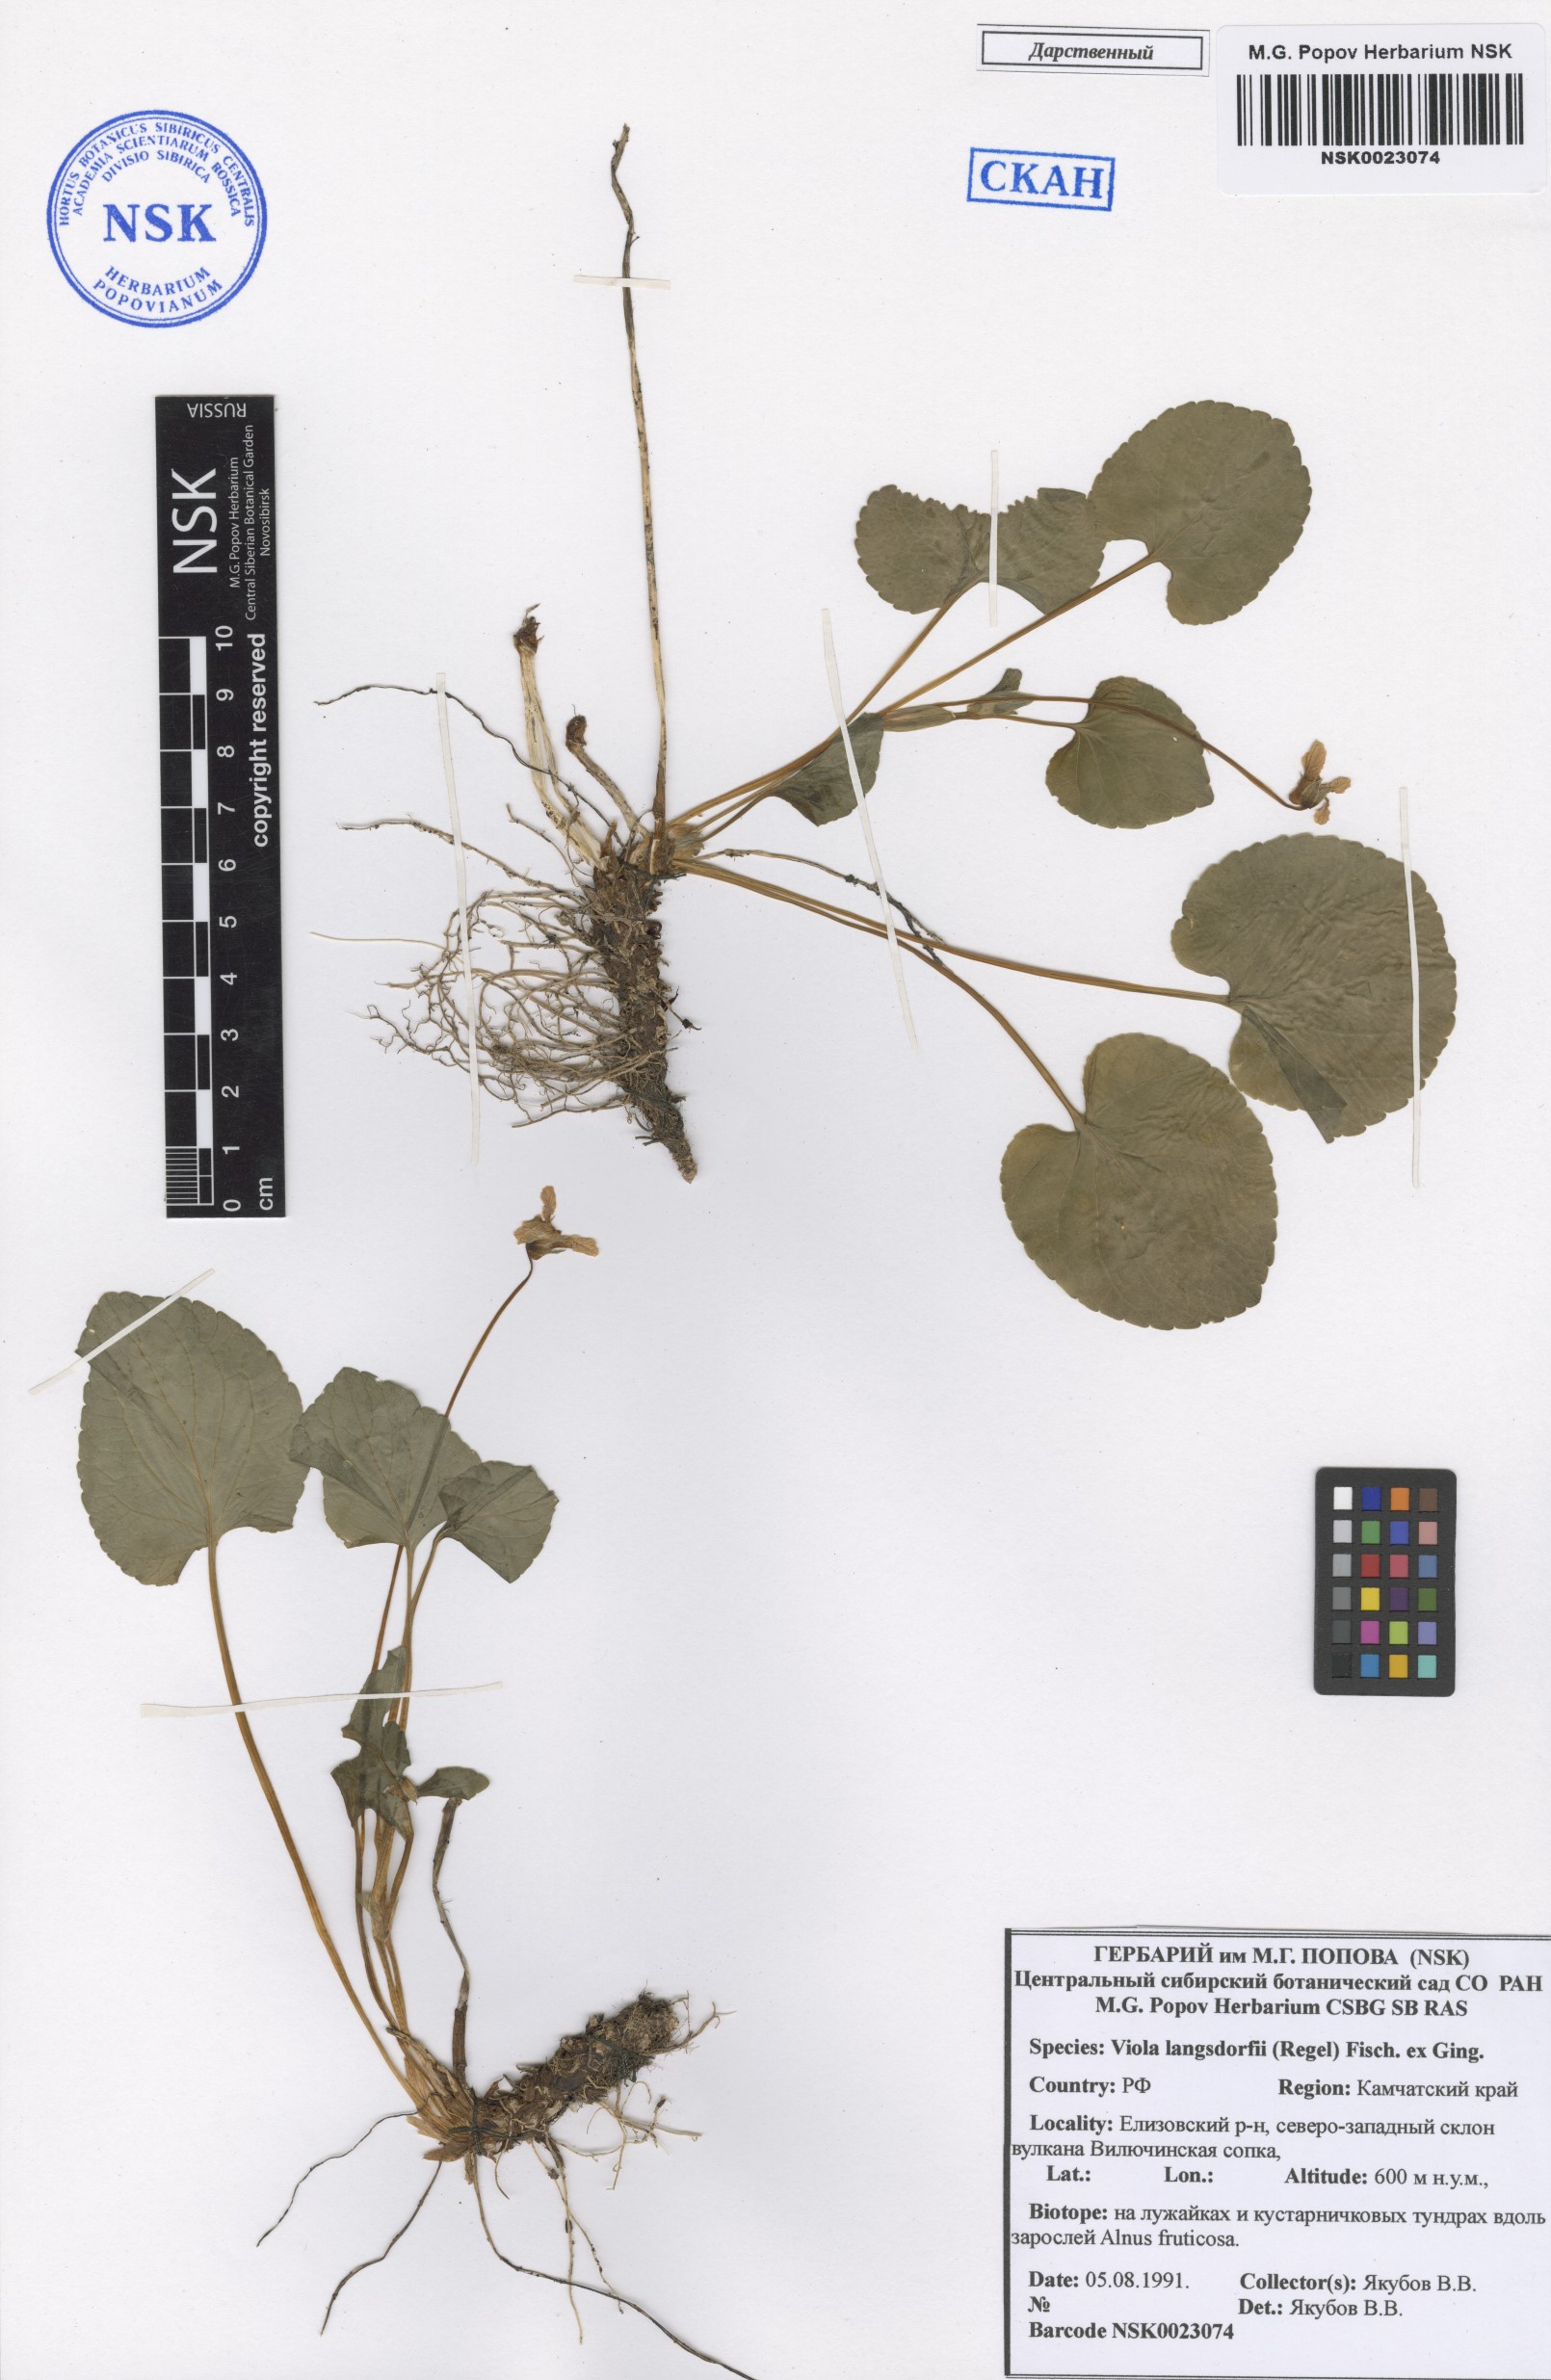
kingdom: Plantae
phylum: Tracheophyta
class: Magnoliopsida
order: Malpighiales
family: Violaceae
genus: Viola
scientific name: Viola langsdorfii
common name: Alaska violet
